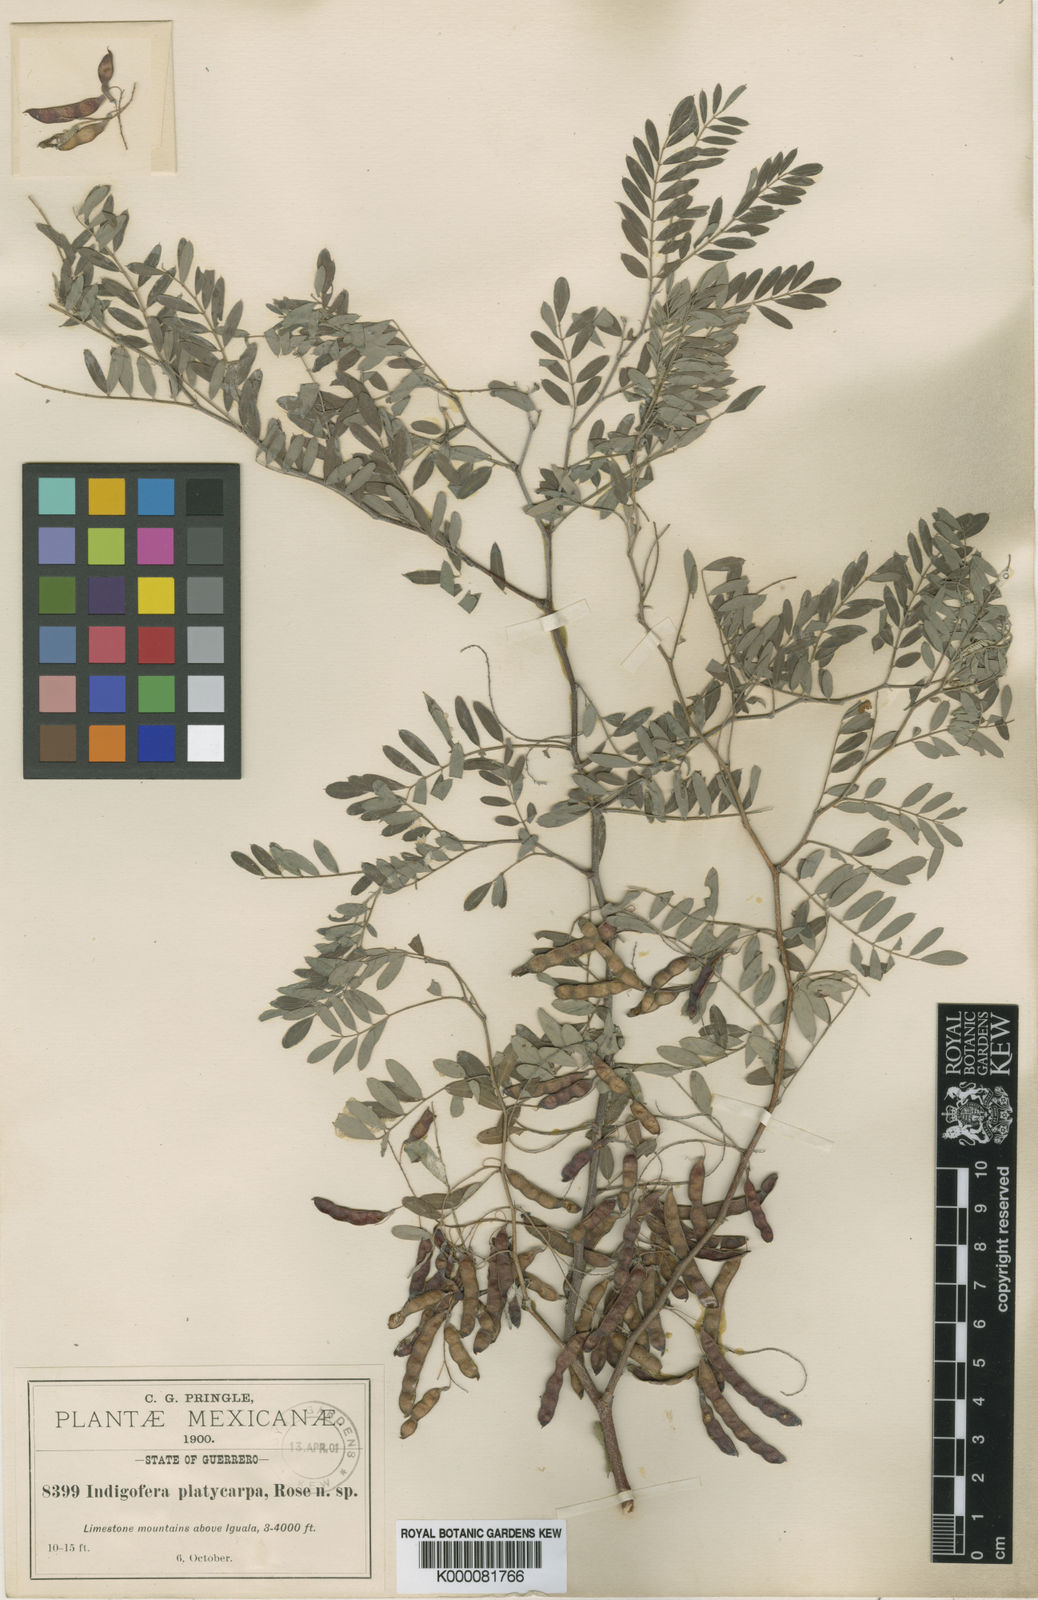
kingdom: Plantae
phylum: Tracheophyta
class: Magnoliopsida
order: Fabales
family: Fabaceae
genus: Indigofera
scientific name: Indigofera platycarpa
